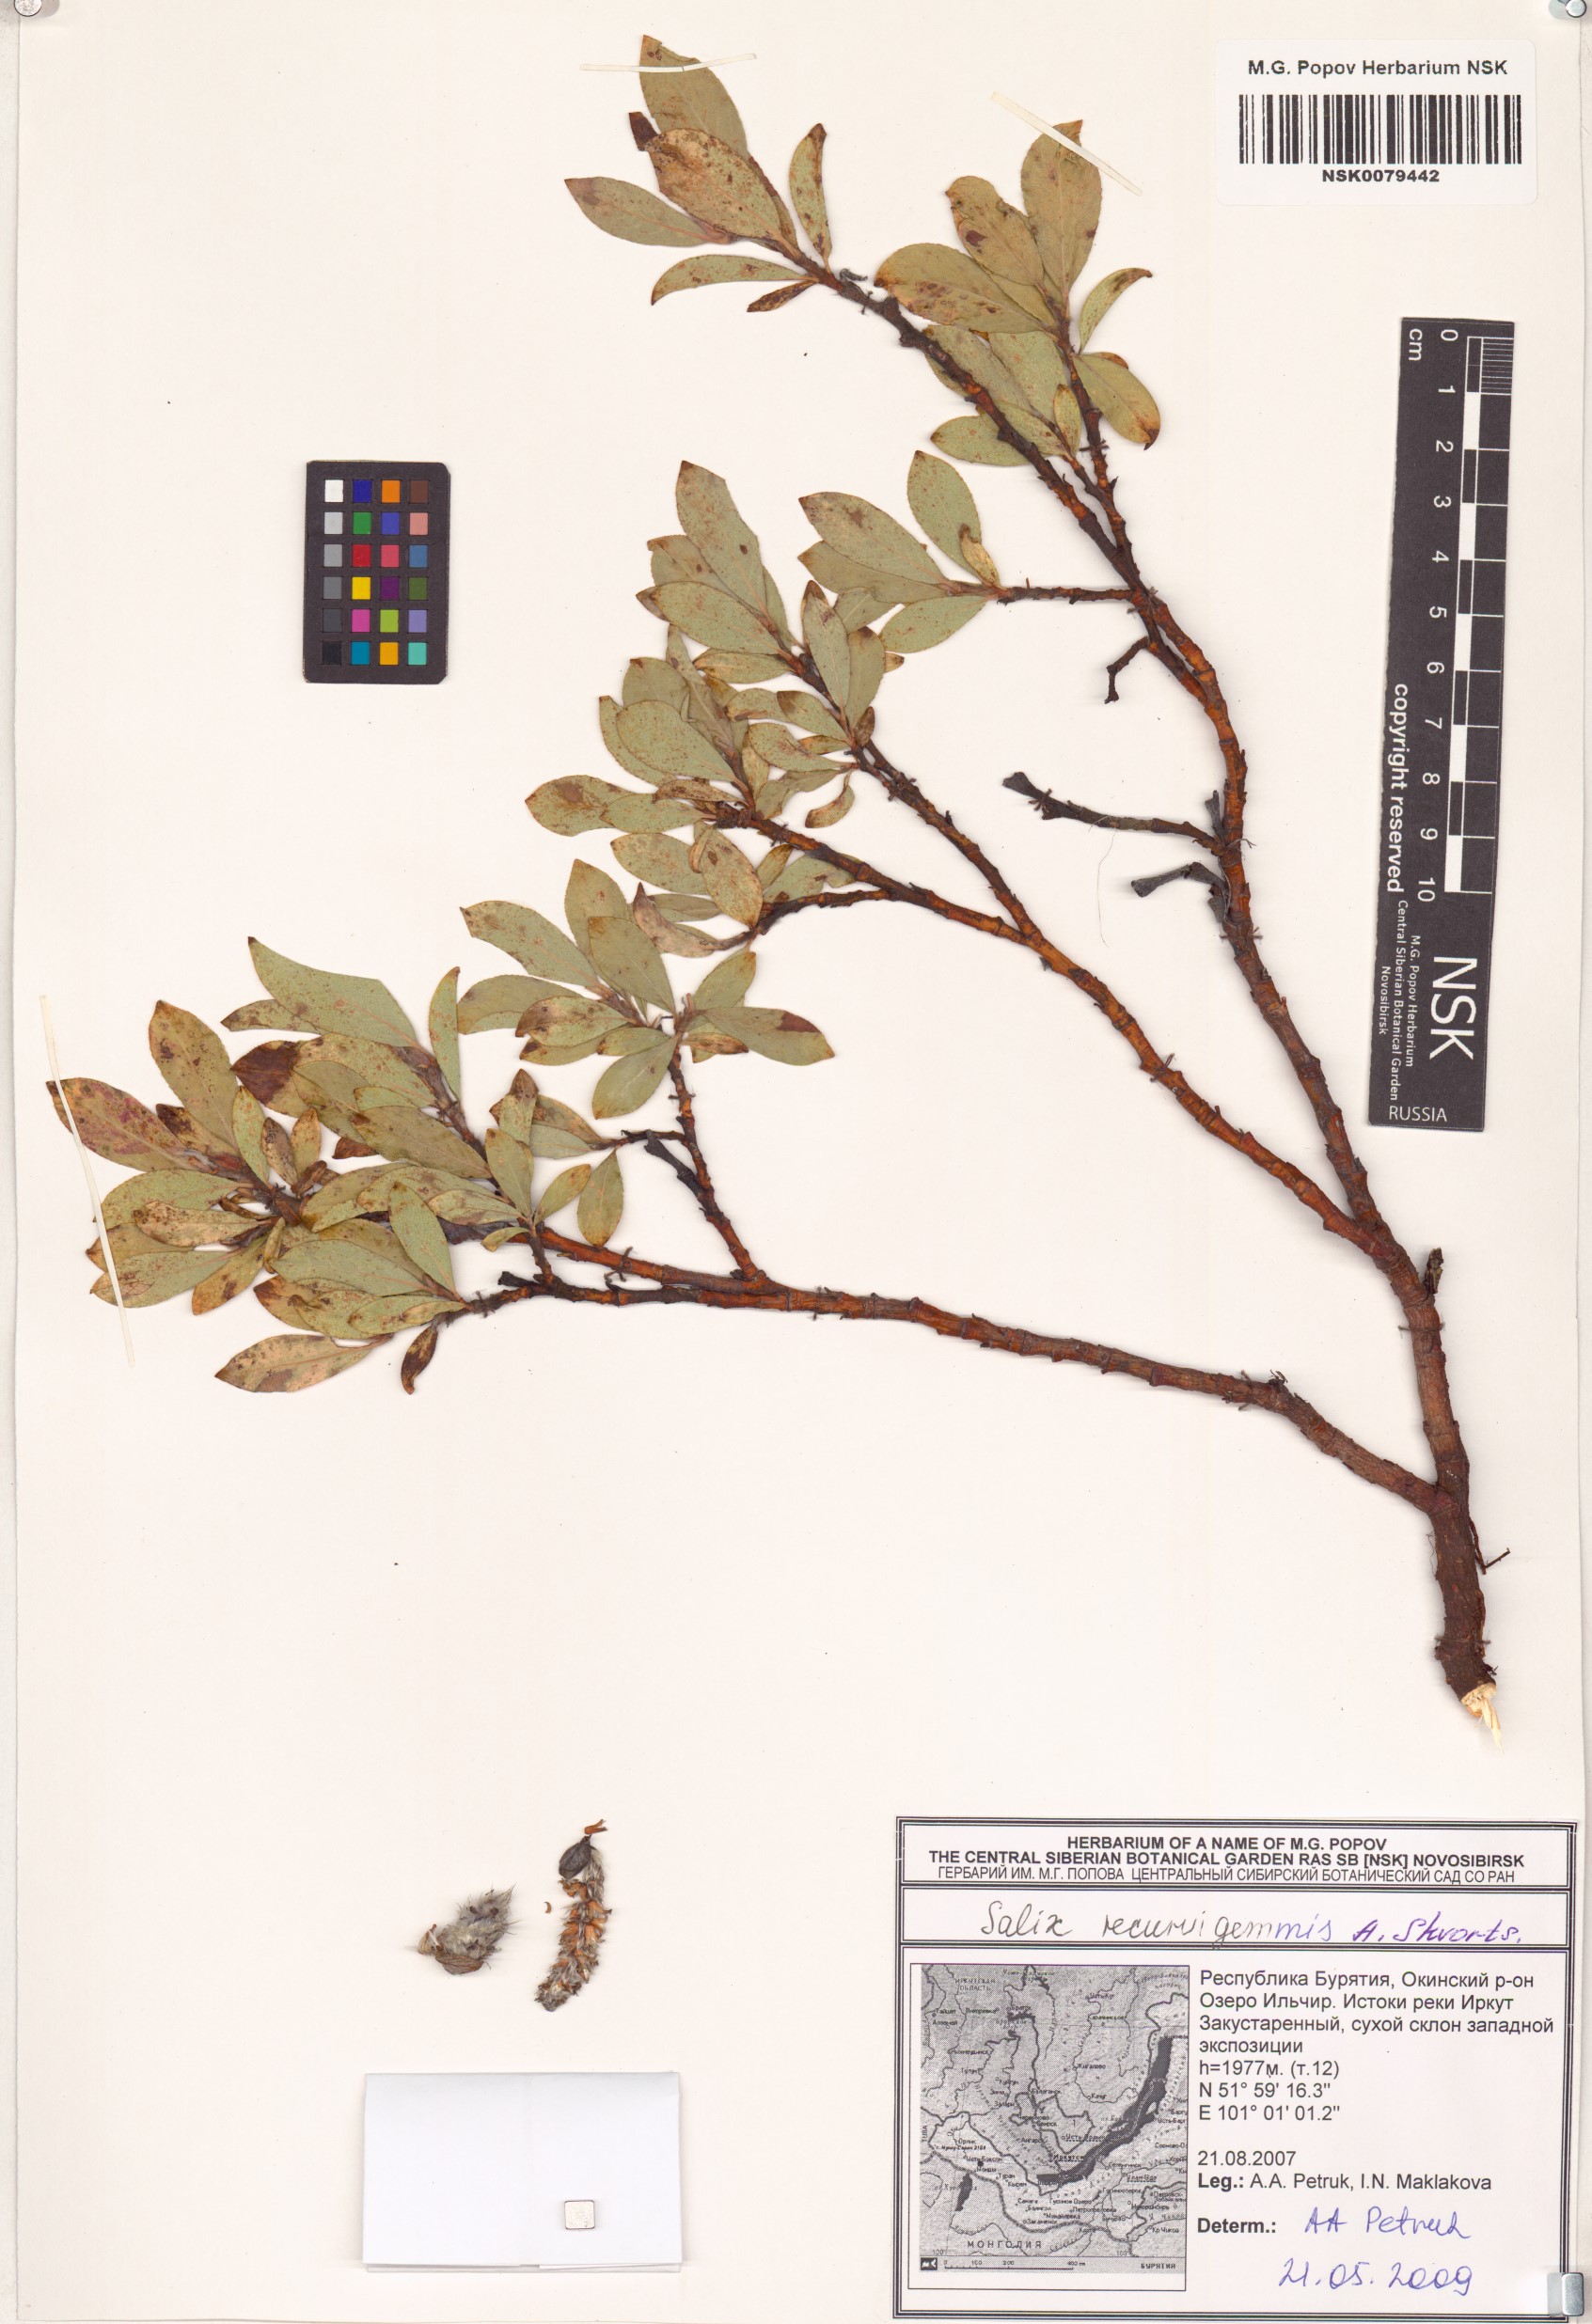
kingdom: Plantae
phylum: Tracheophyta
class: Magnoliopsida
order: Malpighiales
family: Salicaceae
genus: Salix
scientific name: Salix recurvigemmata
